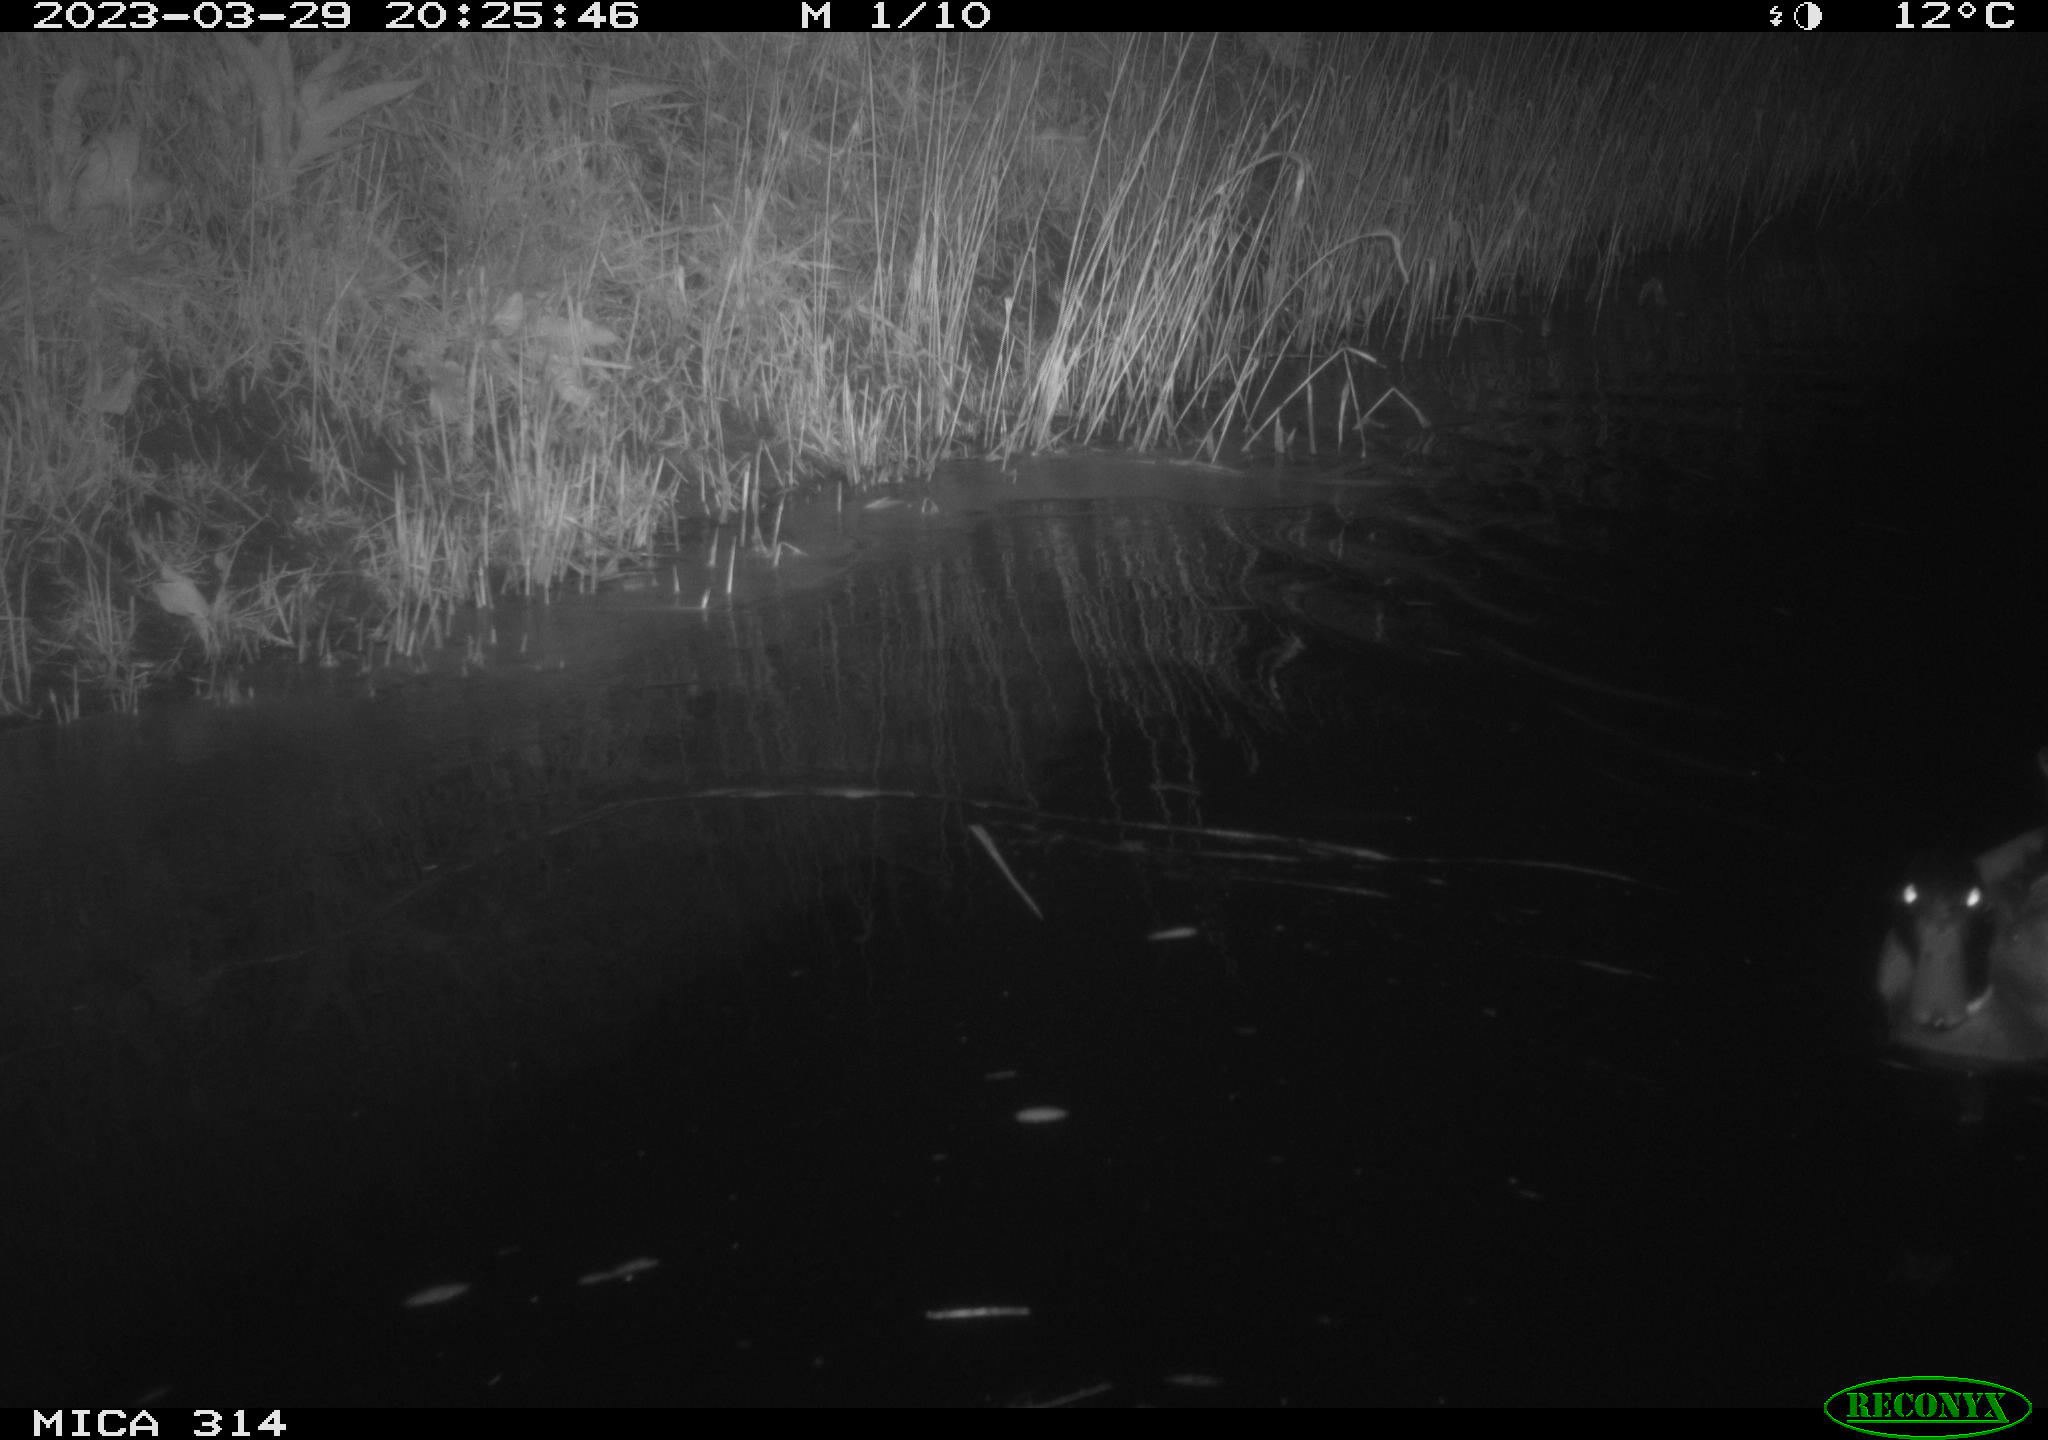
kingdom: Animalia
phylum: Chordata
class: Aves
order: Anseriformes
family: Anatidae
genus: Anas
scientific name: Anas
